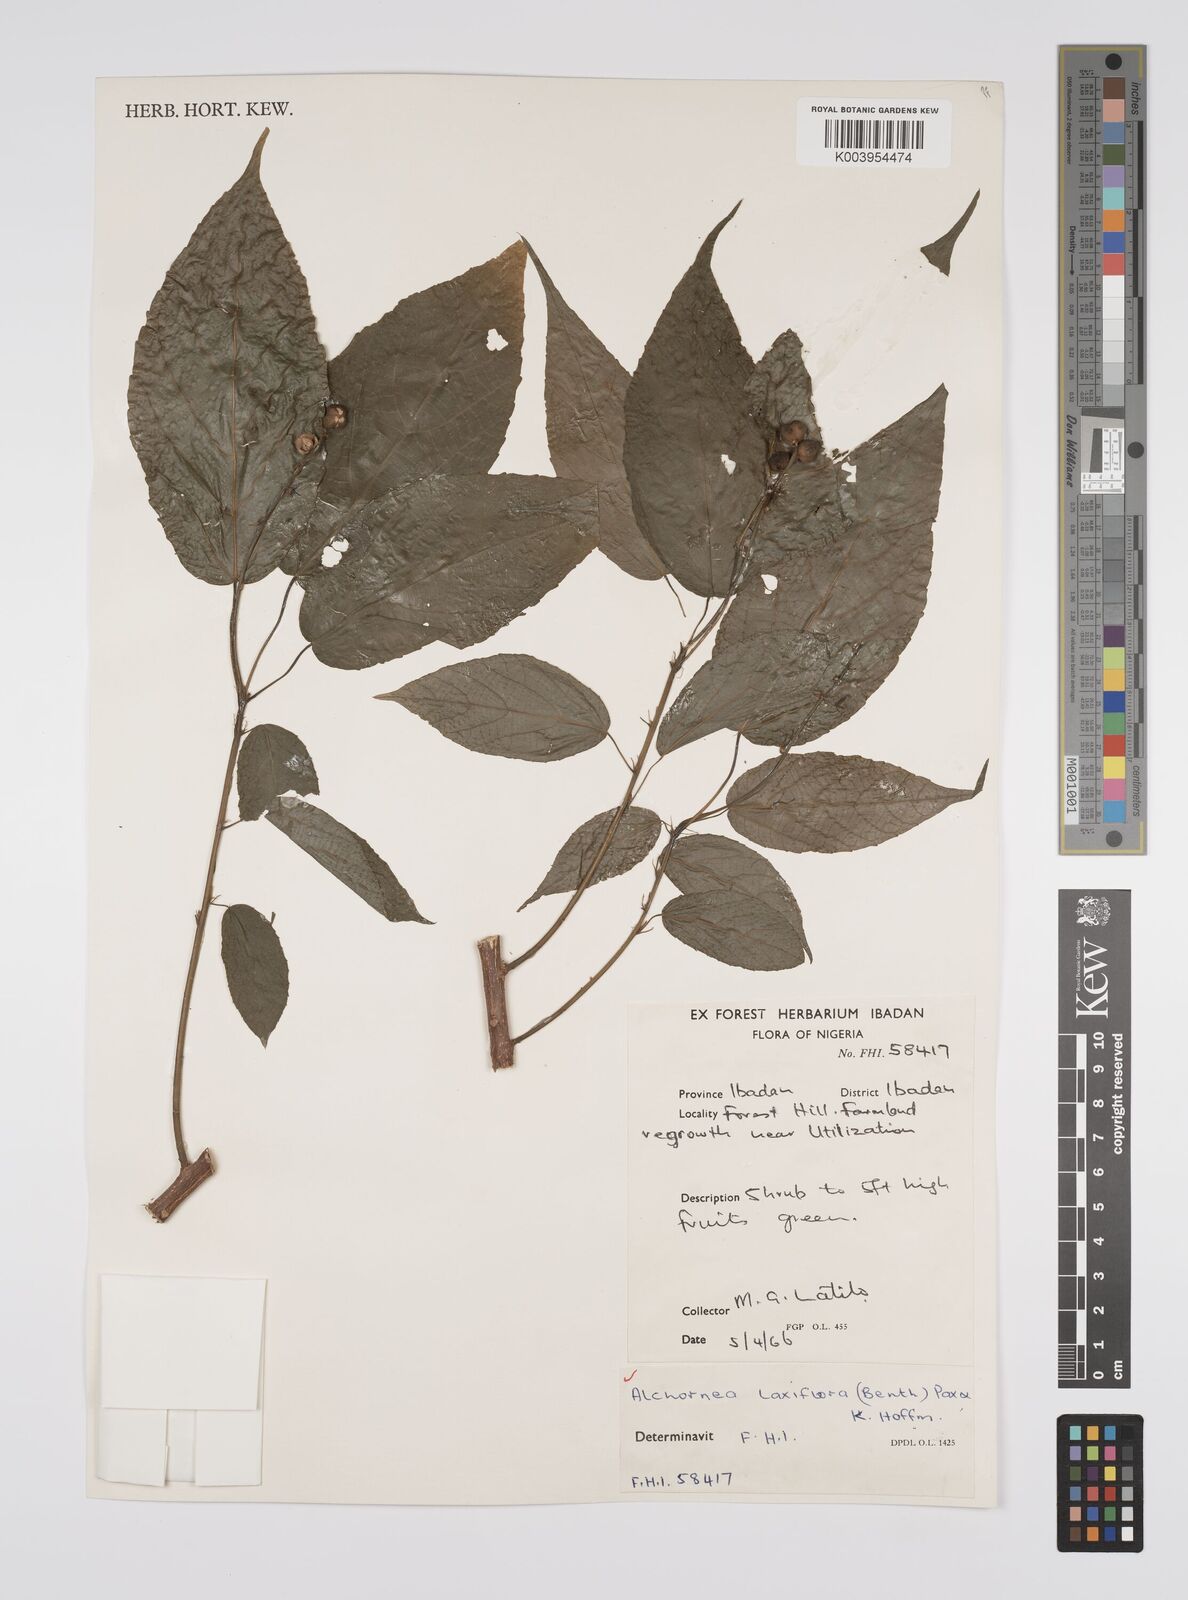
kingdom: Plantae
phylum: Tracheophyta
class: Magnoliopsida
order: Malpighiales
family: Euphorbiaceae
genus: Alchornea
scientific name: Alchornea laxiflora
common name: Lowveld bead-string
